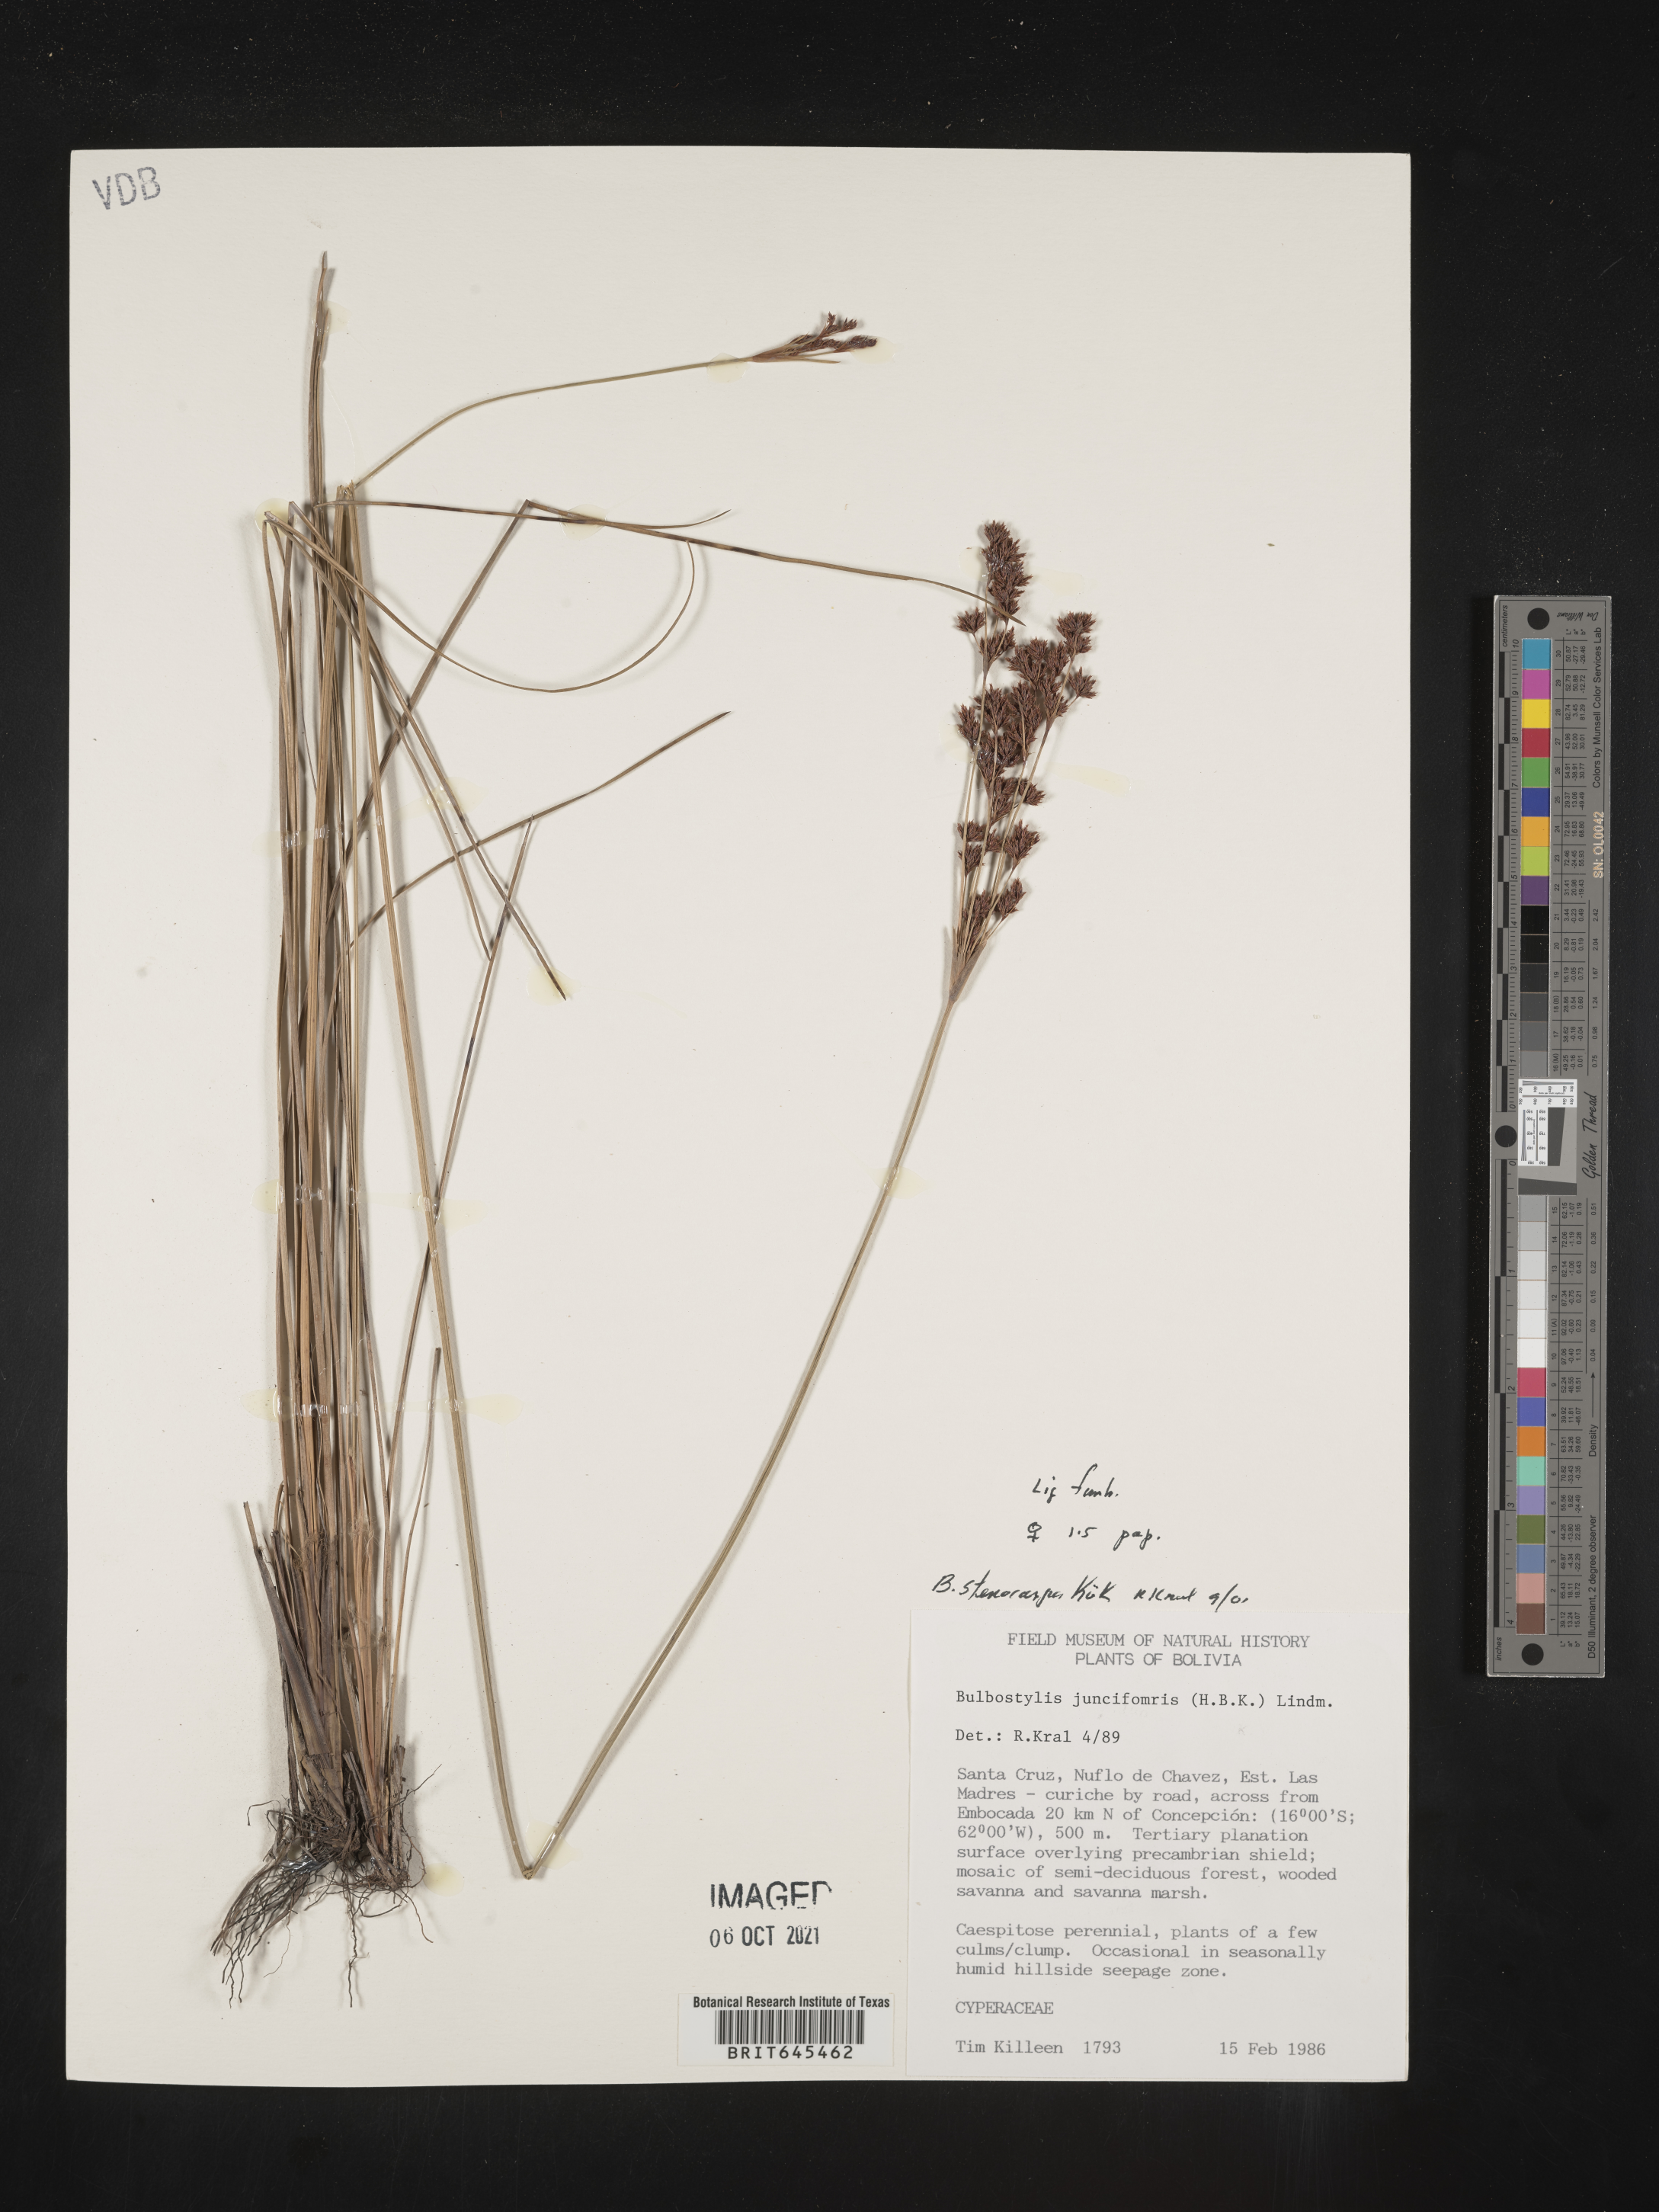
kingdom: Plantae
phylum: Tracheophyta
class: Liliopsida
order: Poales
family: Cyperaceae
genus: Bulbostylis
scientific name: Bulbostylis stenocarpa
